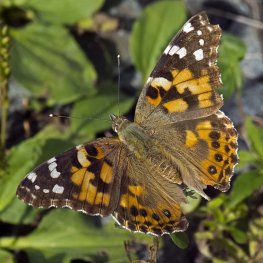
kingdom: Animalia
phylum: Arthropoda
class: Insecta
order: Lepidoptera
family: Nymphalidae
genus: Vanessa
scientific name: Vanessa cardui
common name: Painted Lady
